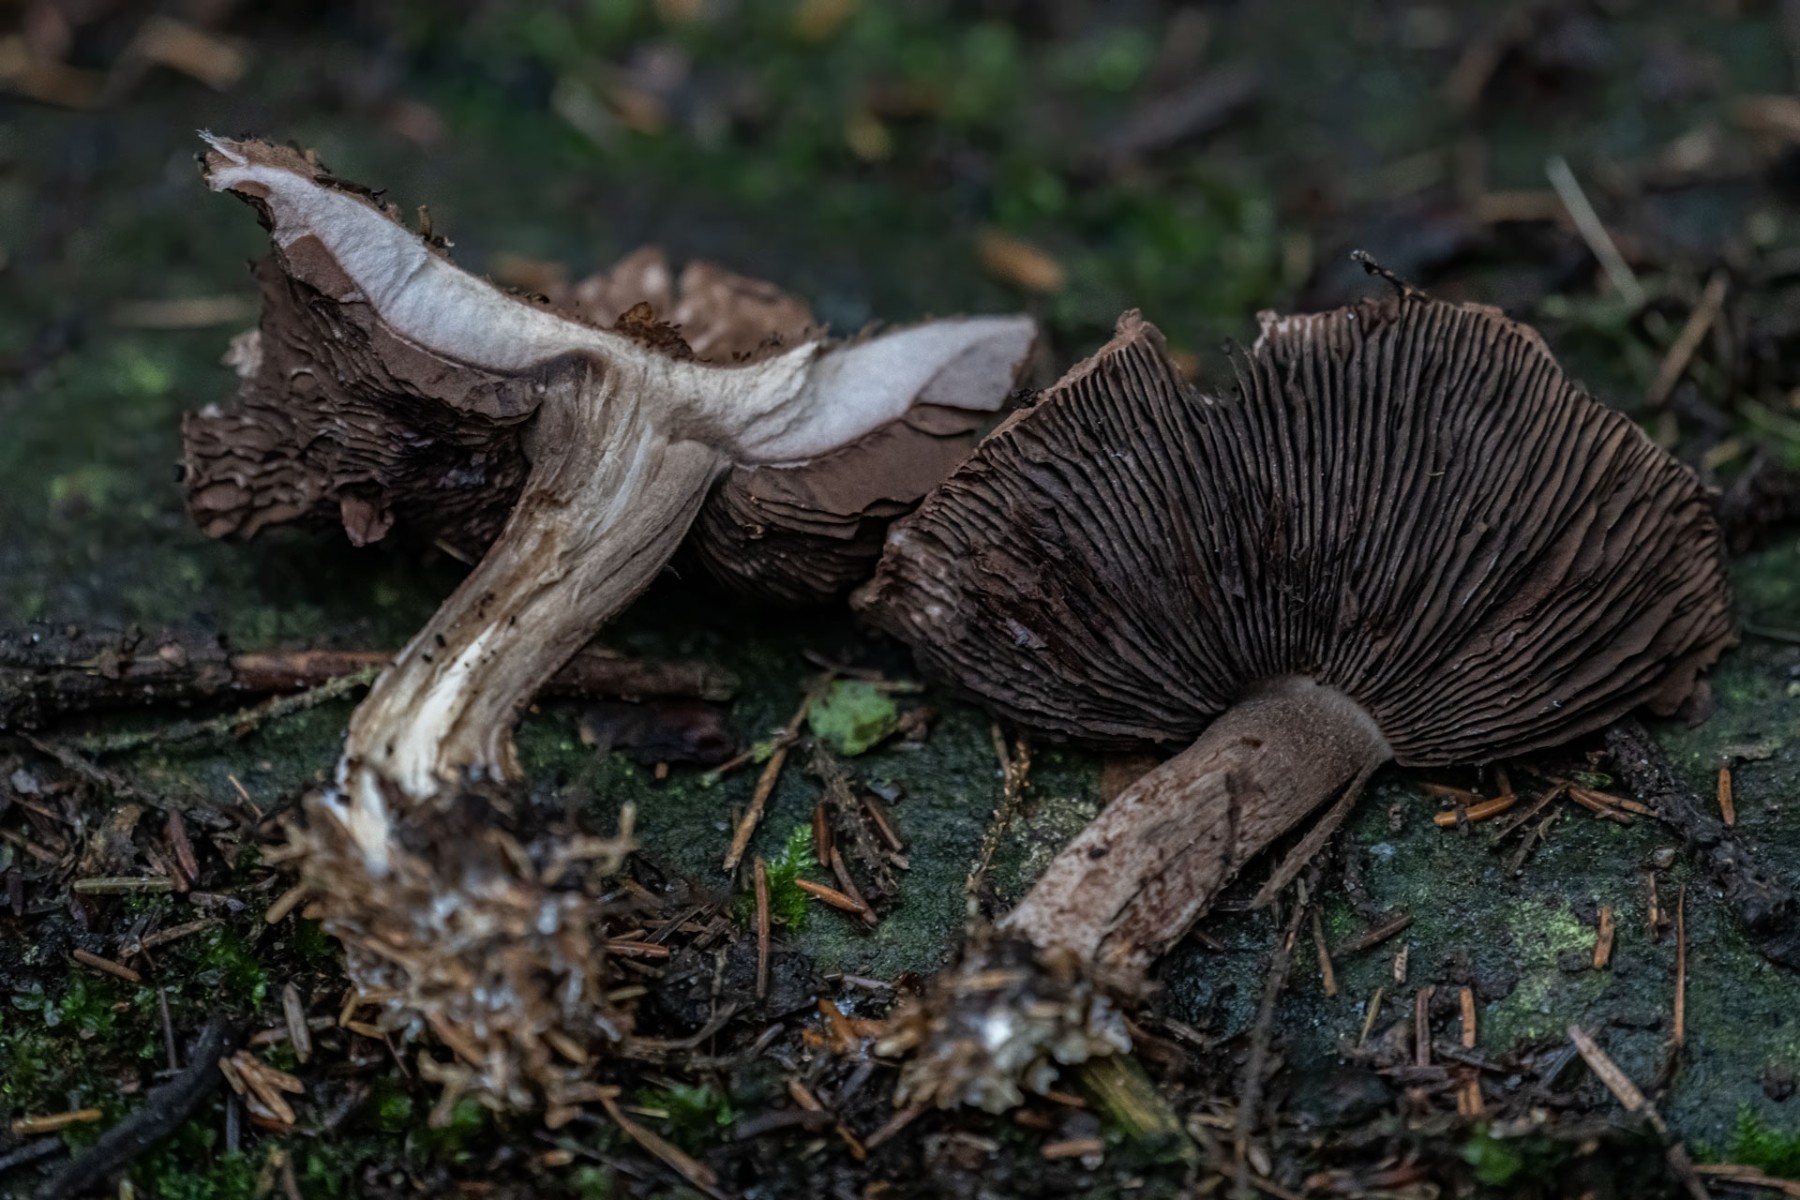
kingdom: Fungi
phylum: Basidiomycota
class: Agaricomycetes
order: Agaricales
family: Agaricaceae
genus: Agaricus
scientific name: Agaricus
